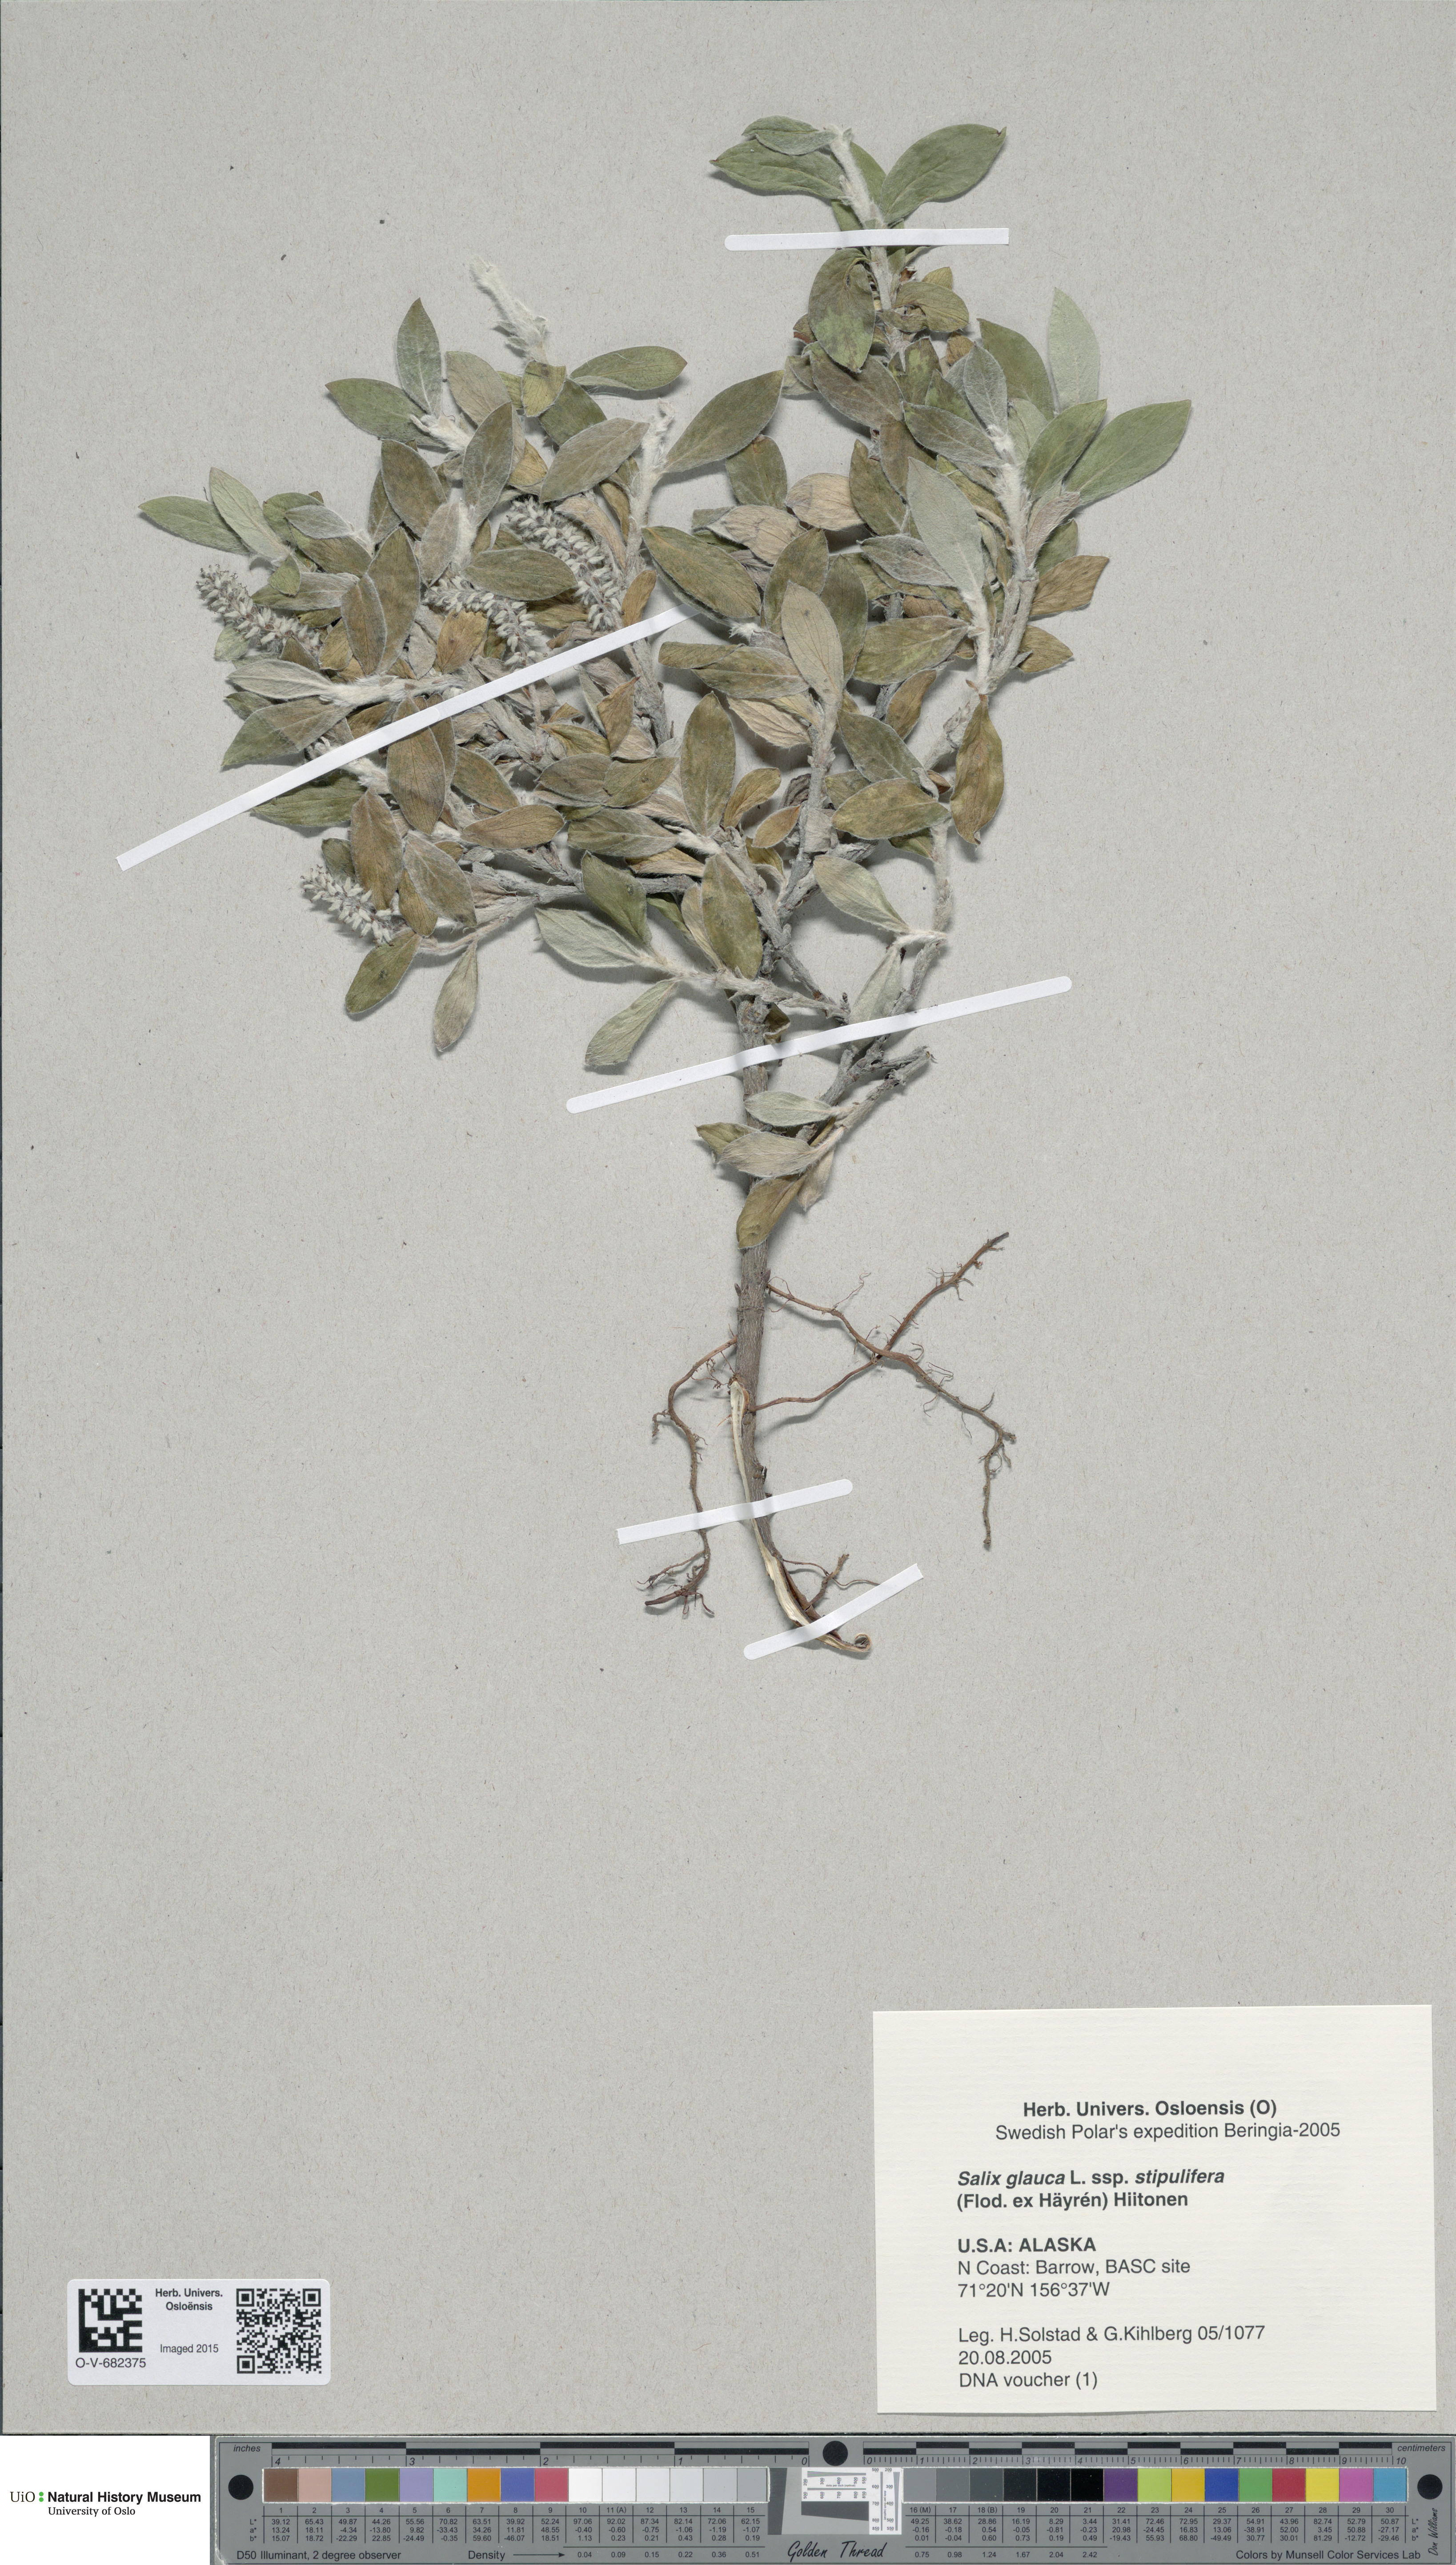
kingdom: Plantae
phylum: Tracheophyta
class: Magnoliopsida
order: Malpighiales
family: Salicaceae
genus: Salix
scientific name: Salix glauca
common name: Glaucous willow
